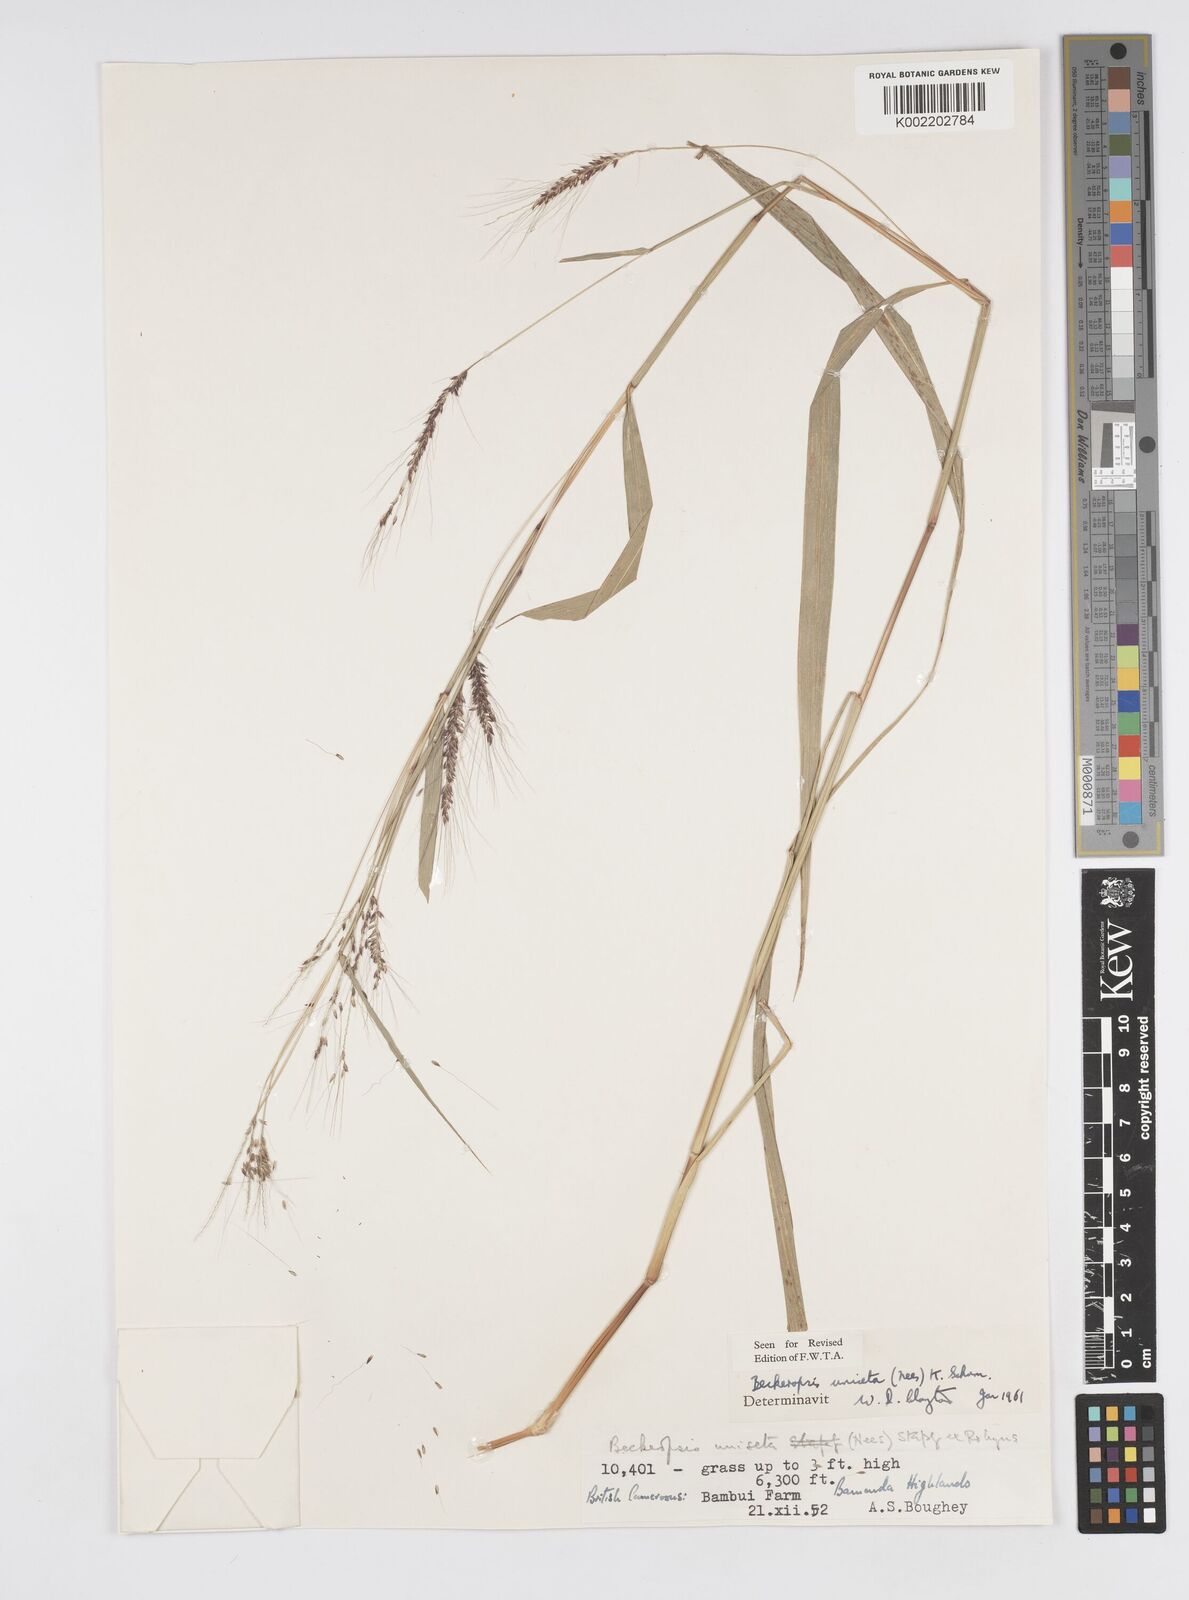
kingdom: Plantae
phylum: Tracheophyta
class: Liliopsida
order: Poales
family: Poaceae
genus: Cenchrus
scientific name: Cenchrus unisetus
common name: Natal grass
